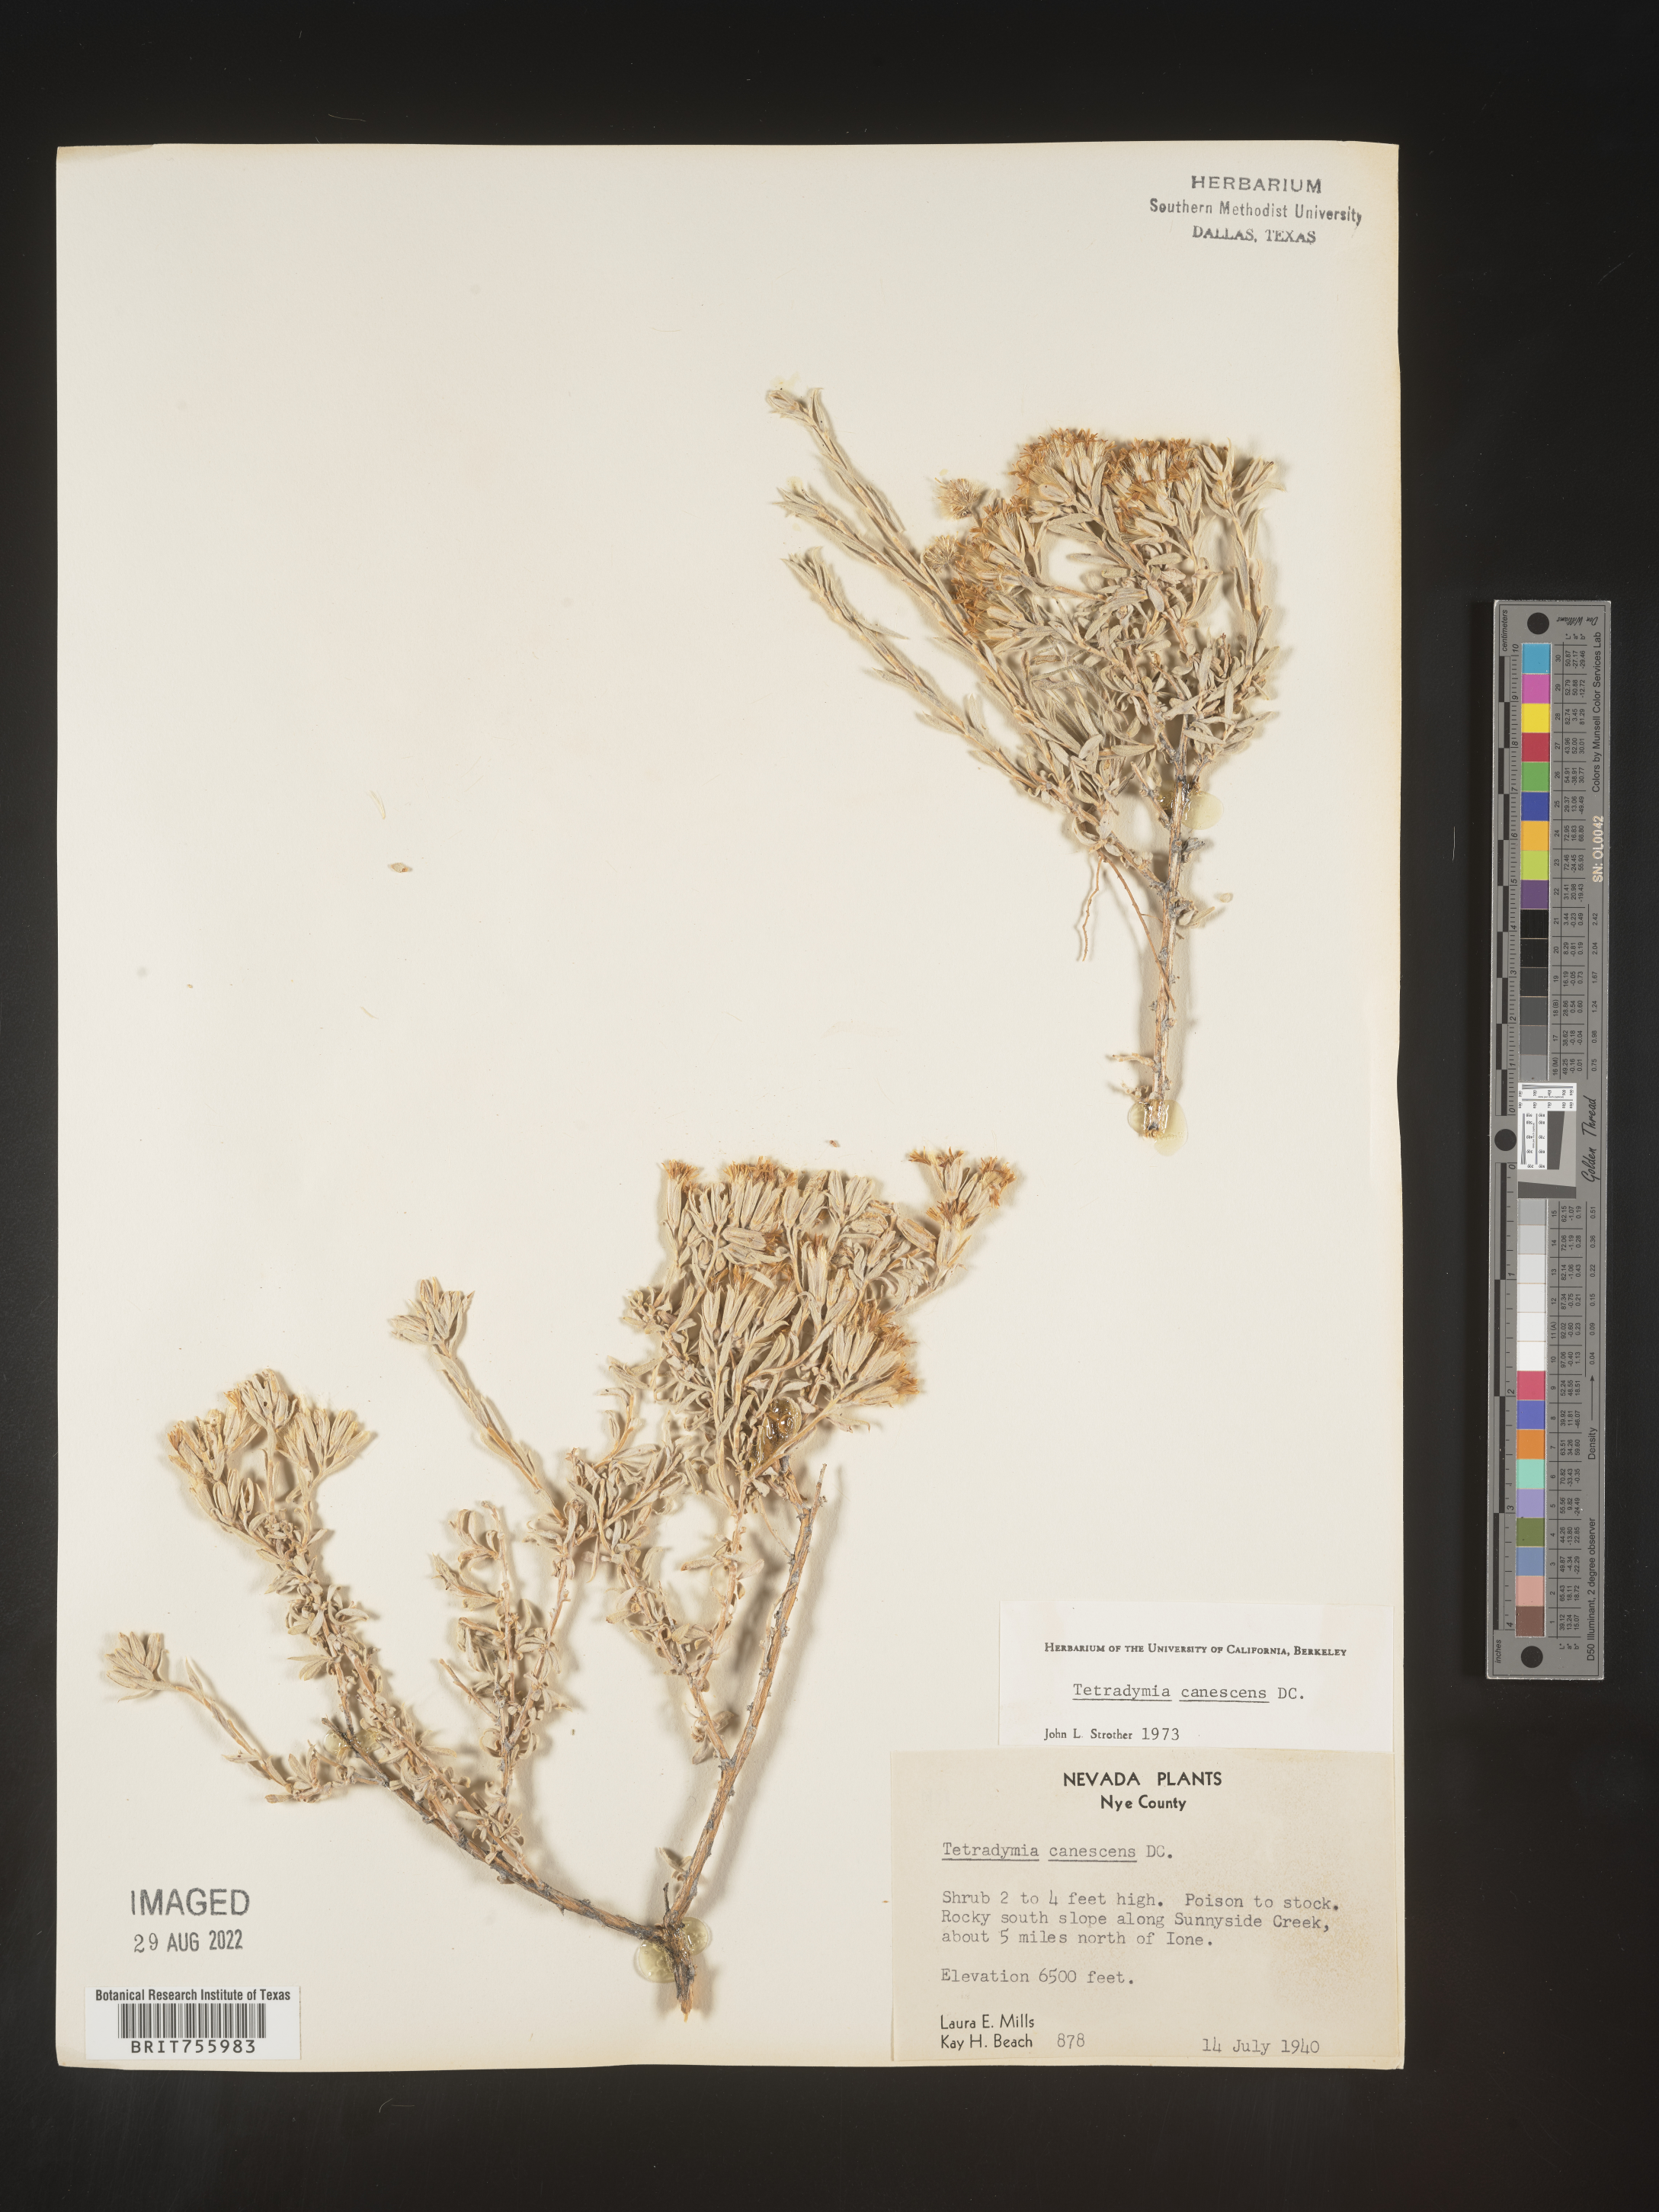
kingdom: Plantae
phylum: Tracheophyta
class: Magnoliopsida
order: Asterales
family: Asteraceae
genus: Tetradymia
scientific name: Tetradymia canescens
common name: Spineless horsebrush
